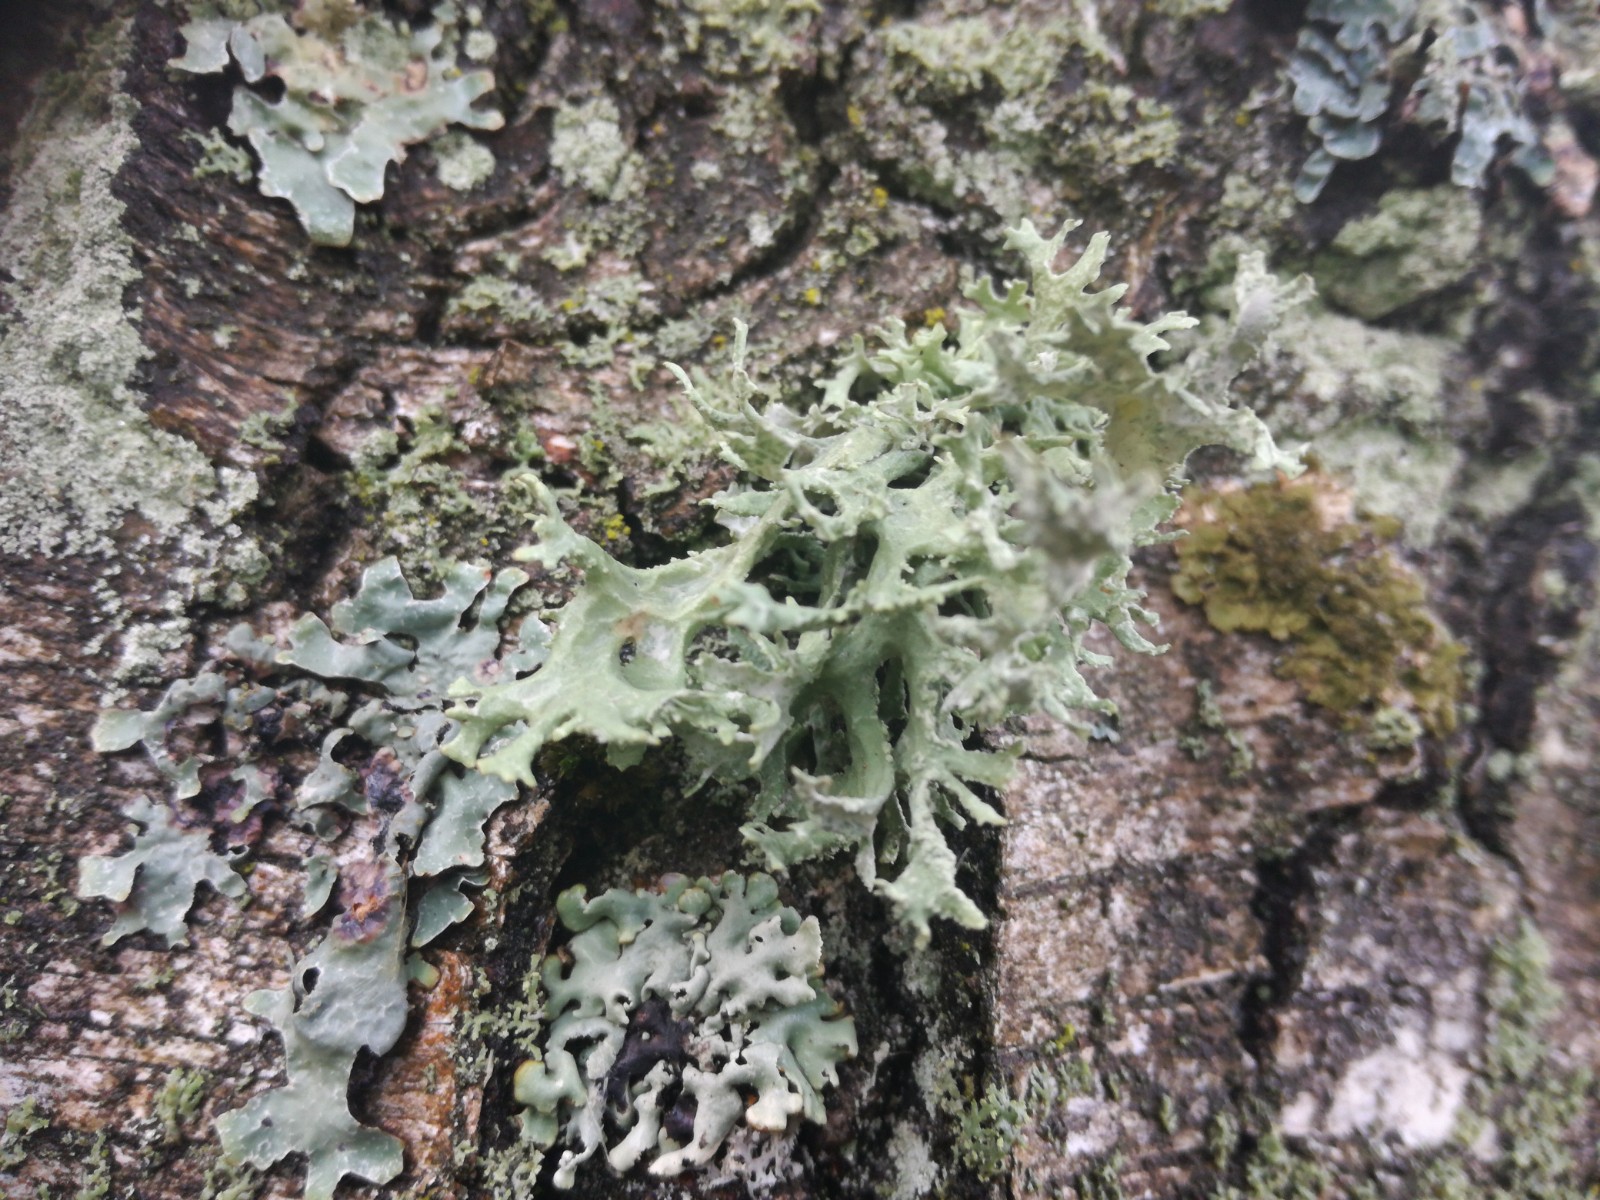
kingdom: Fungi
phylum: Ascomycota
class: Lecanoromycetes
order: Lecanorales
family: Parmeliaceae
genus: Evernia
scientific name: Evernia prunastri
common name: almindelig slåenlav
